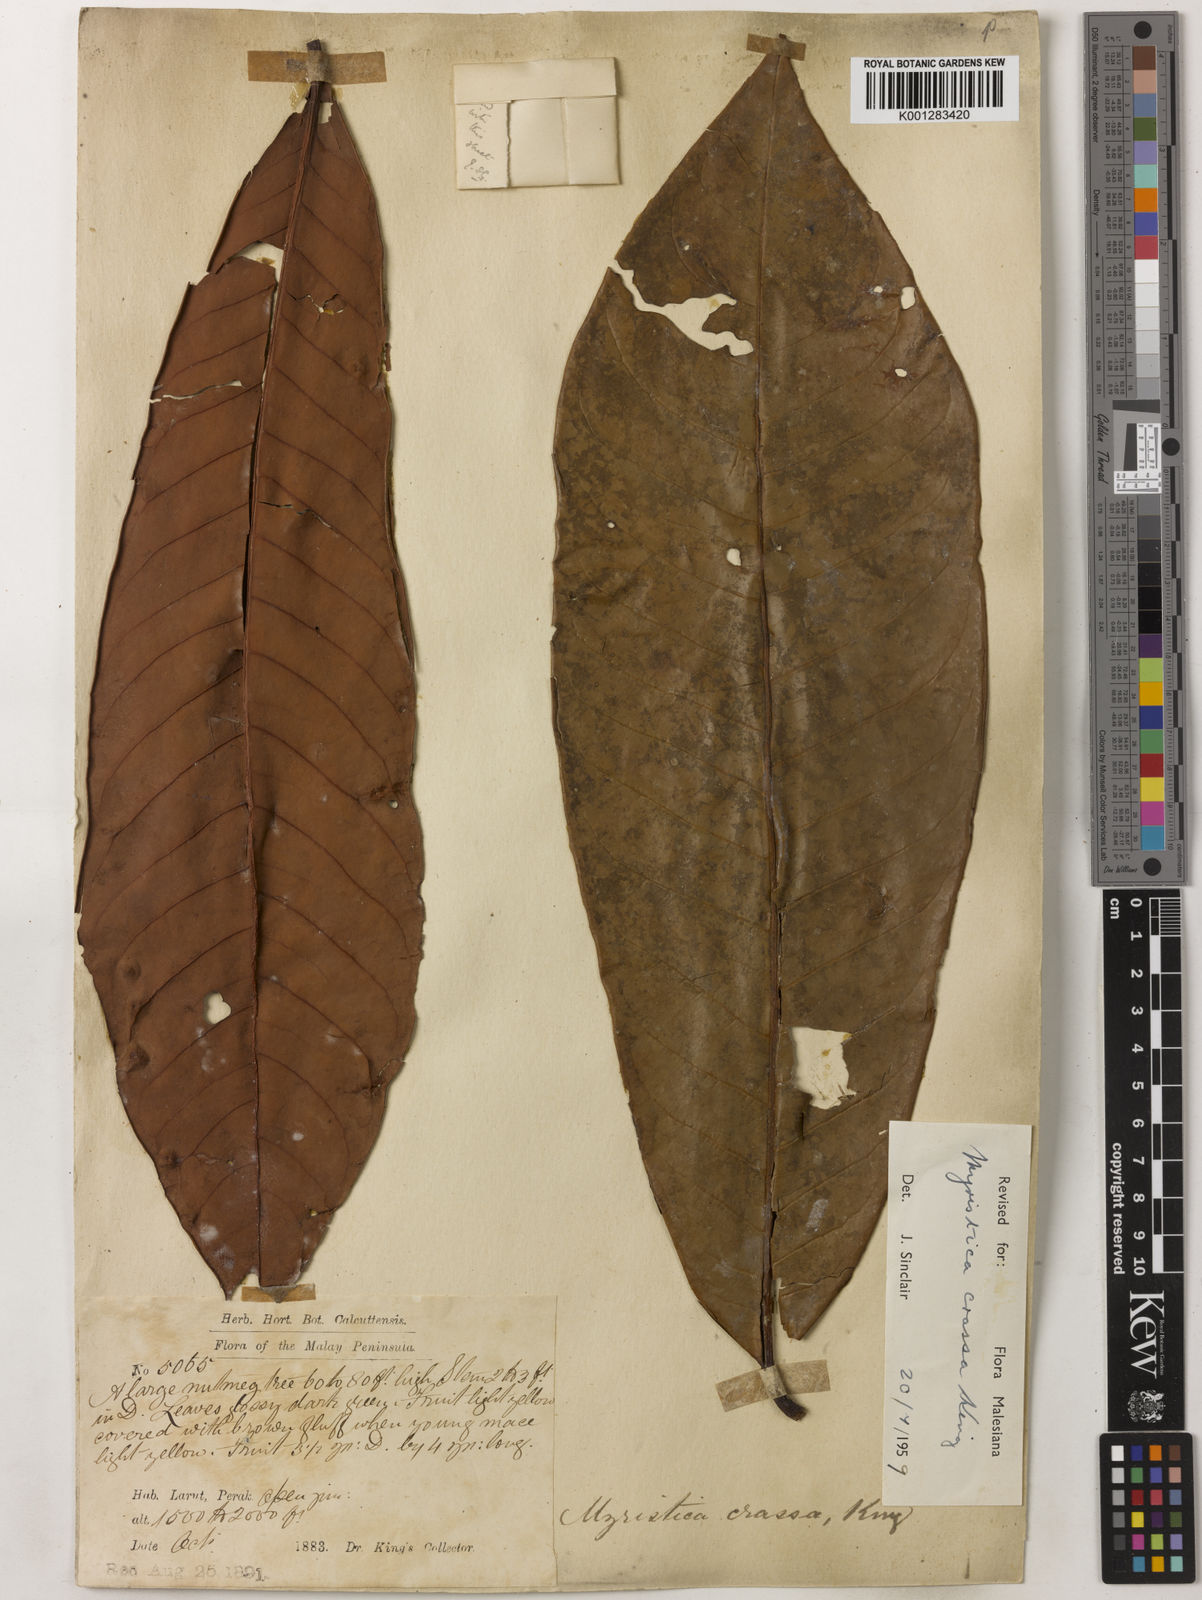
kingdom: Plantae
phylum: Tracheophyta
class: Magnoliopsida
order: Magnoliales
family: Myristicaceae
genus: Myristica
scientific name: Myristica crassa
